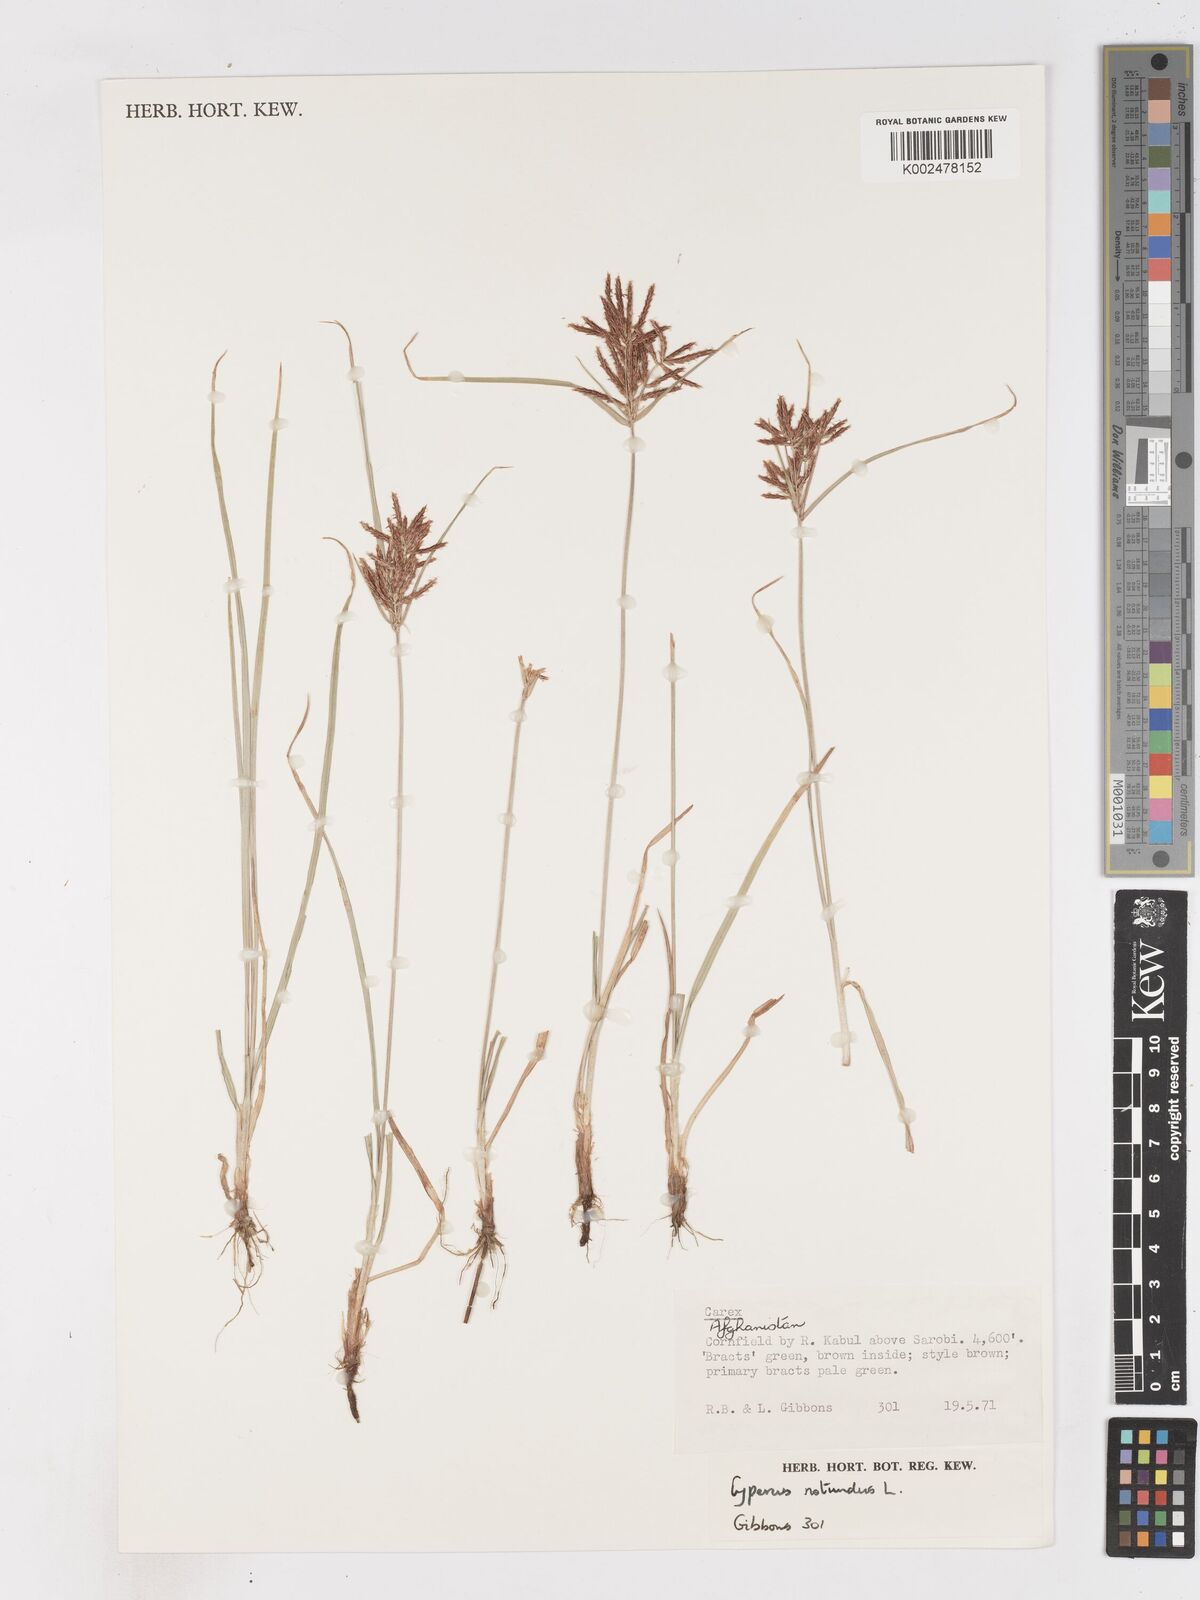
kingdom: Plantae
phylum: Tracheophyta
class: Liliopsida
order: Poales
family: Cyperaceae
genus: Cyperus
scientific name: Cyperus rotundus
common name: Nutgrass
